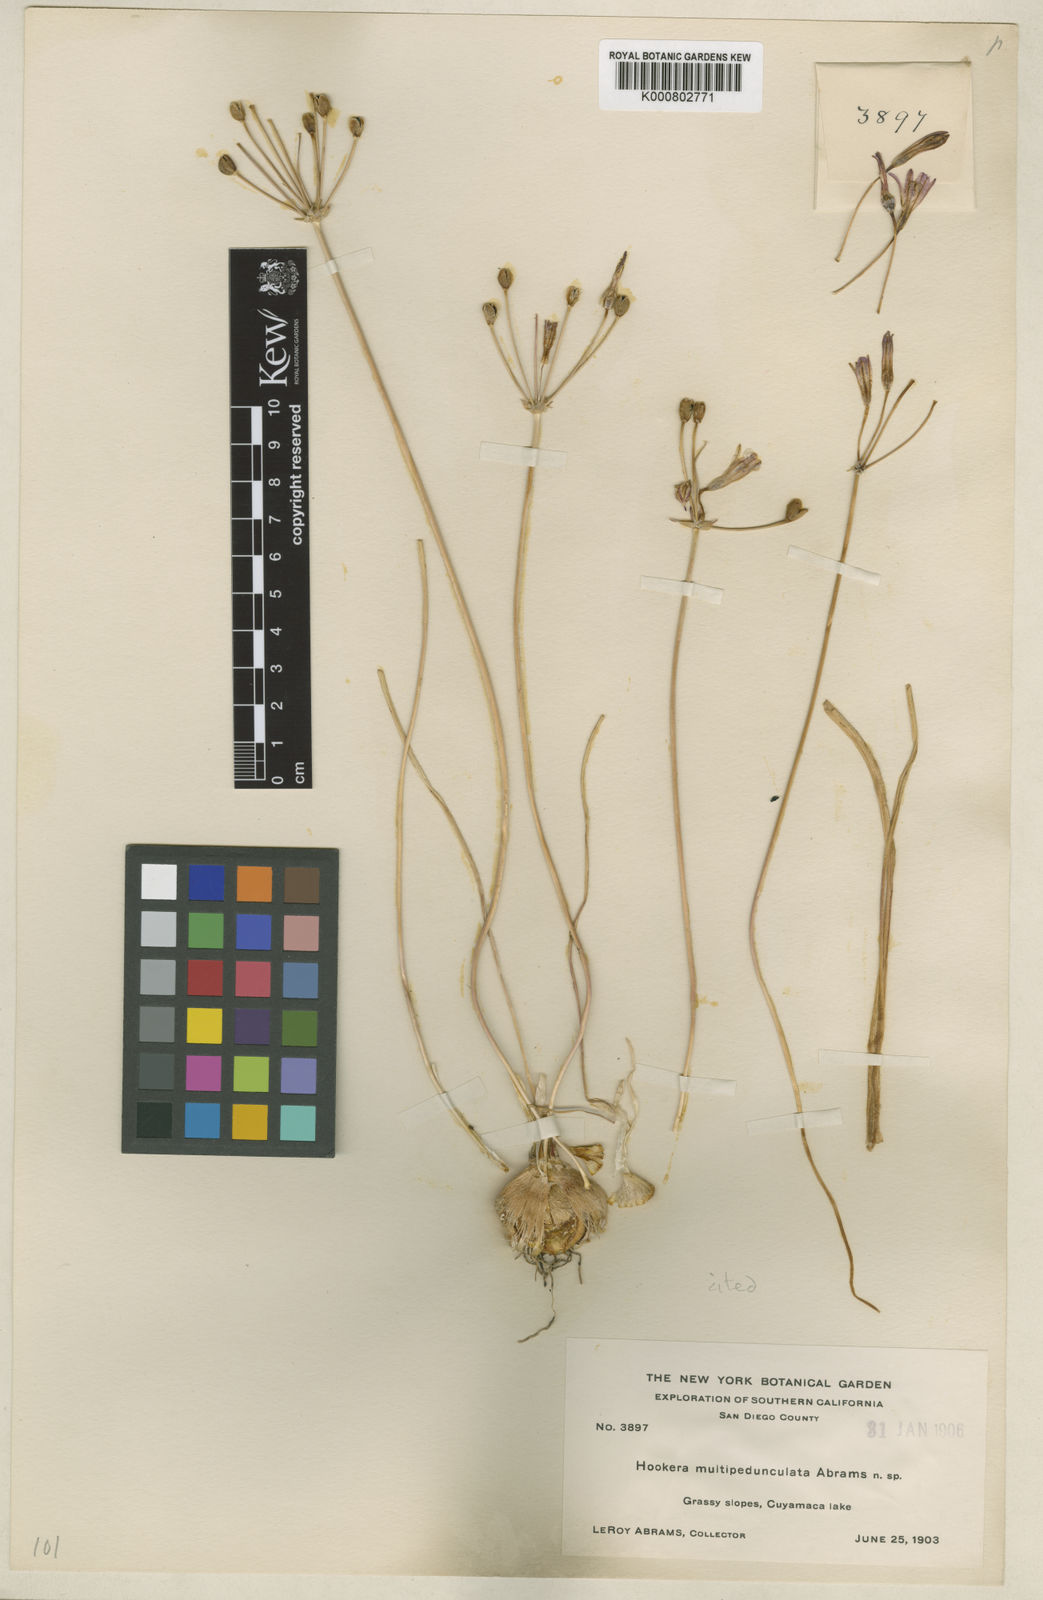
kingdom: Plantae
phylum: Tracheophyta
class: Liliopsida
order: Asparagales
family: Asparagaceae
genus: Brodiaea
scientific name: Brodiaea orcuttii
